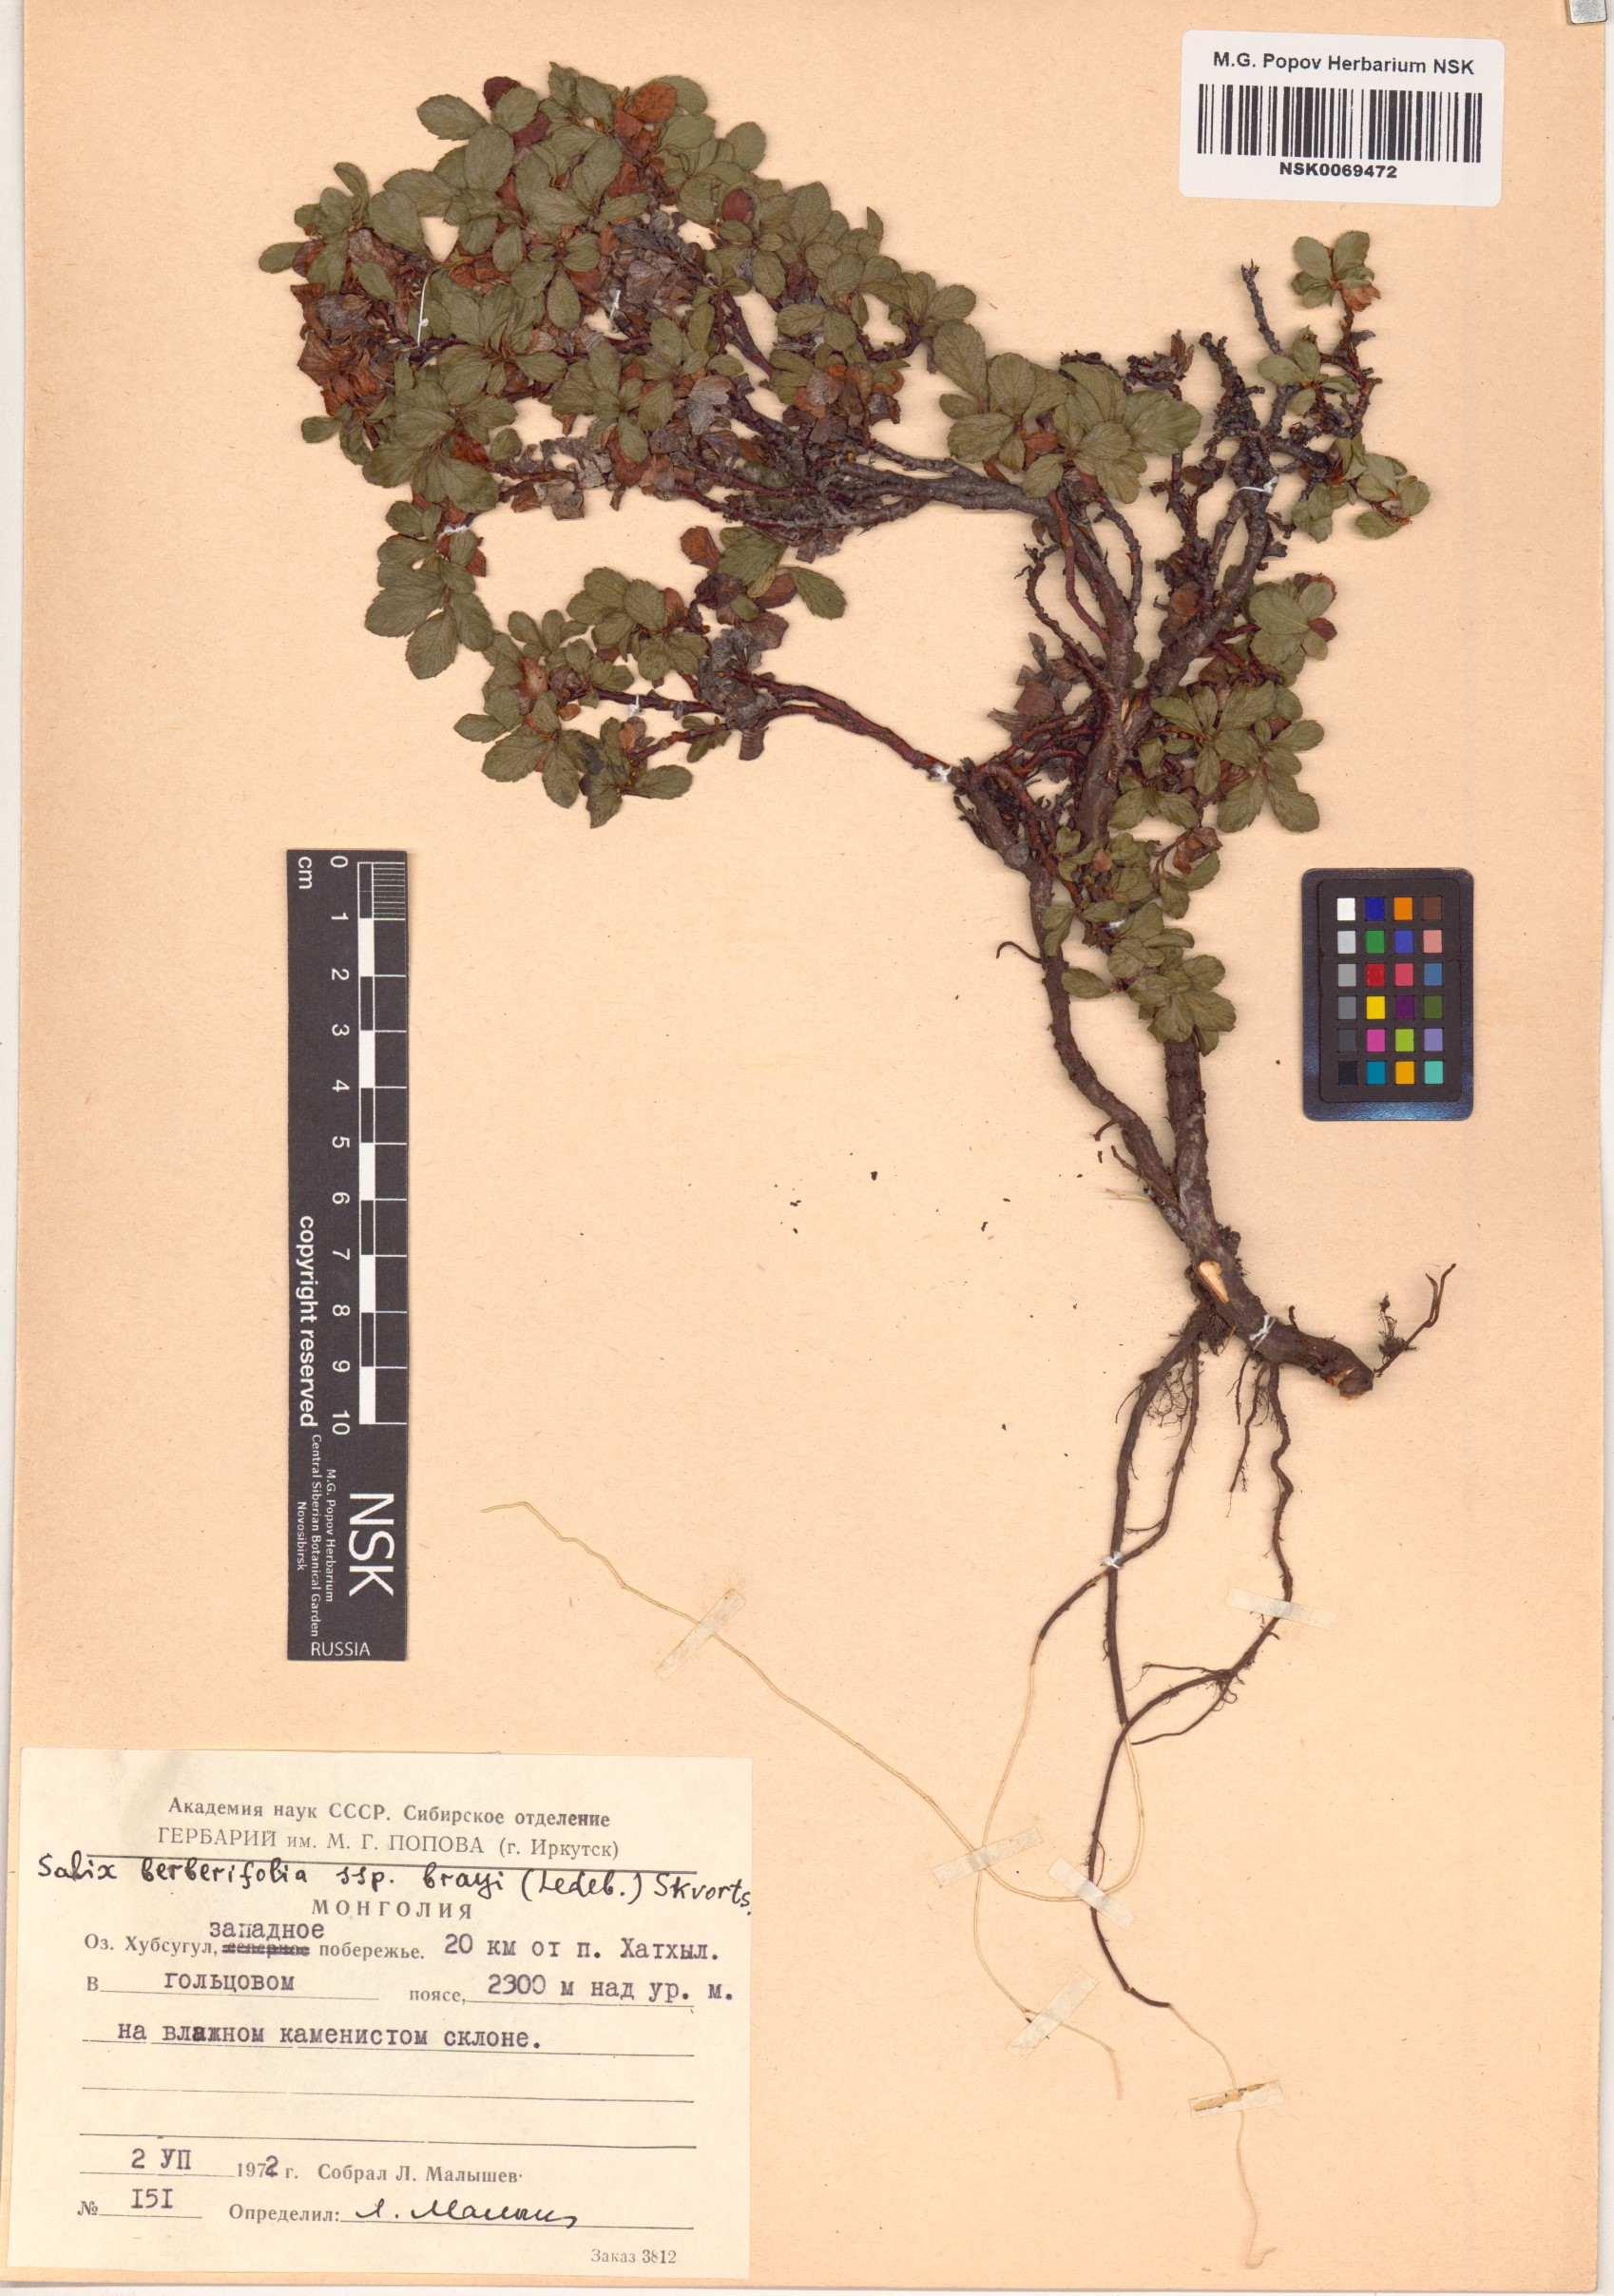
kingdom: Plantae
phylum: Tracheophyta
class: Magnoliopsida
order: Malpighiales
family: Salicaceae
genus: Salix
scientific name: Salix berberifolia
